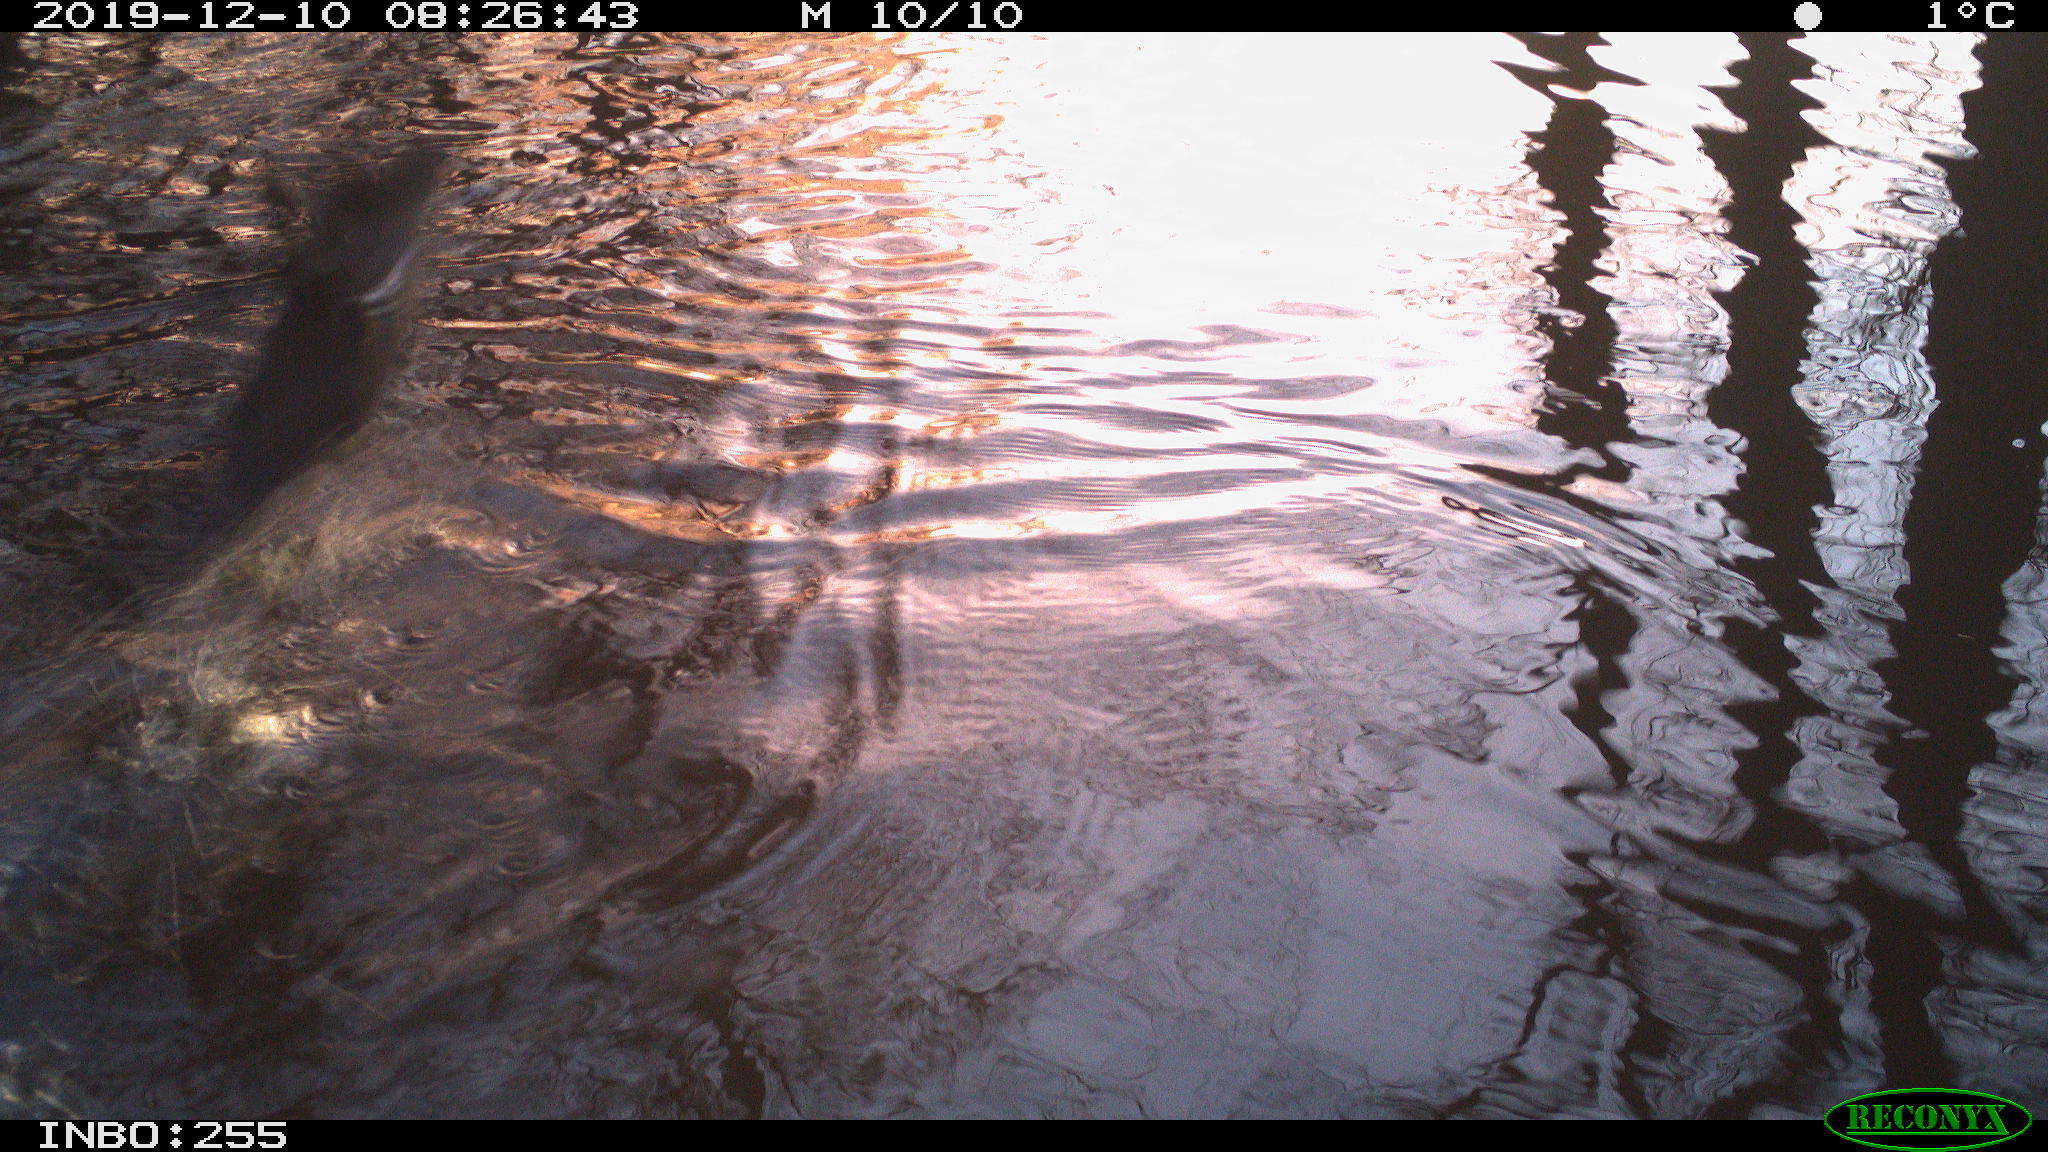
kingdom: Animalia
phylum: Chordata
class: Aves
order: Gruiformes
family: Rallidae
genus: Gallinula
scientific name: Gallinula chloropus
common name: Common moorhen
